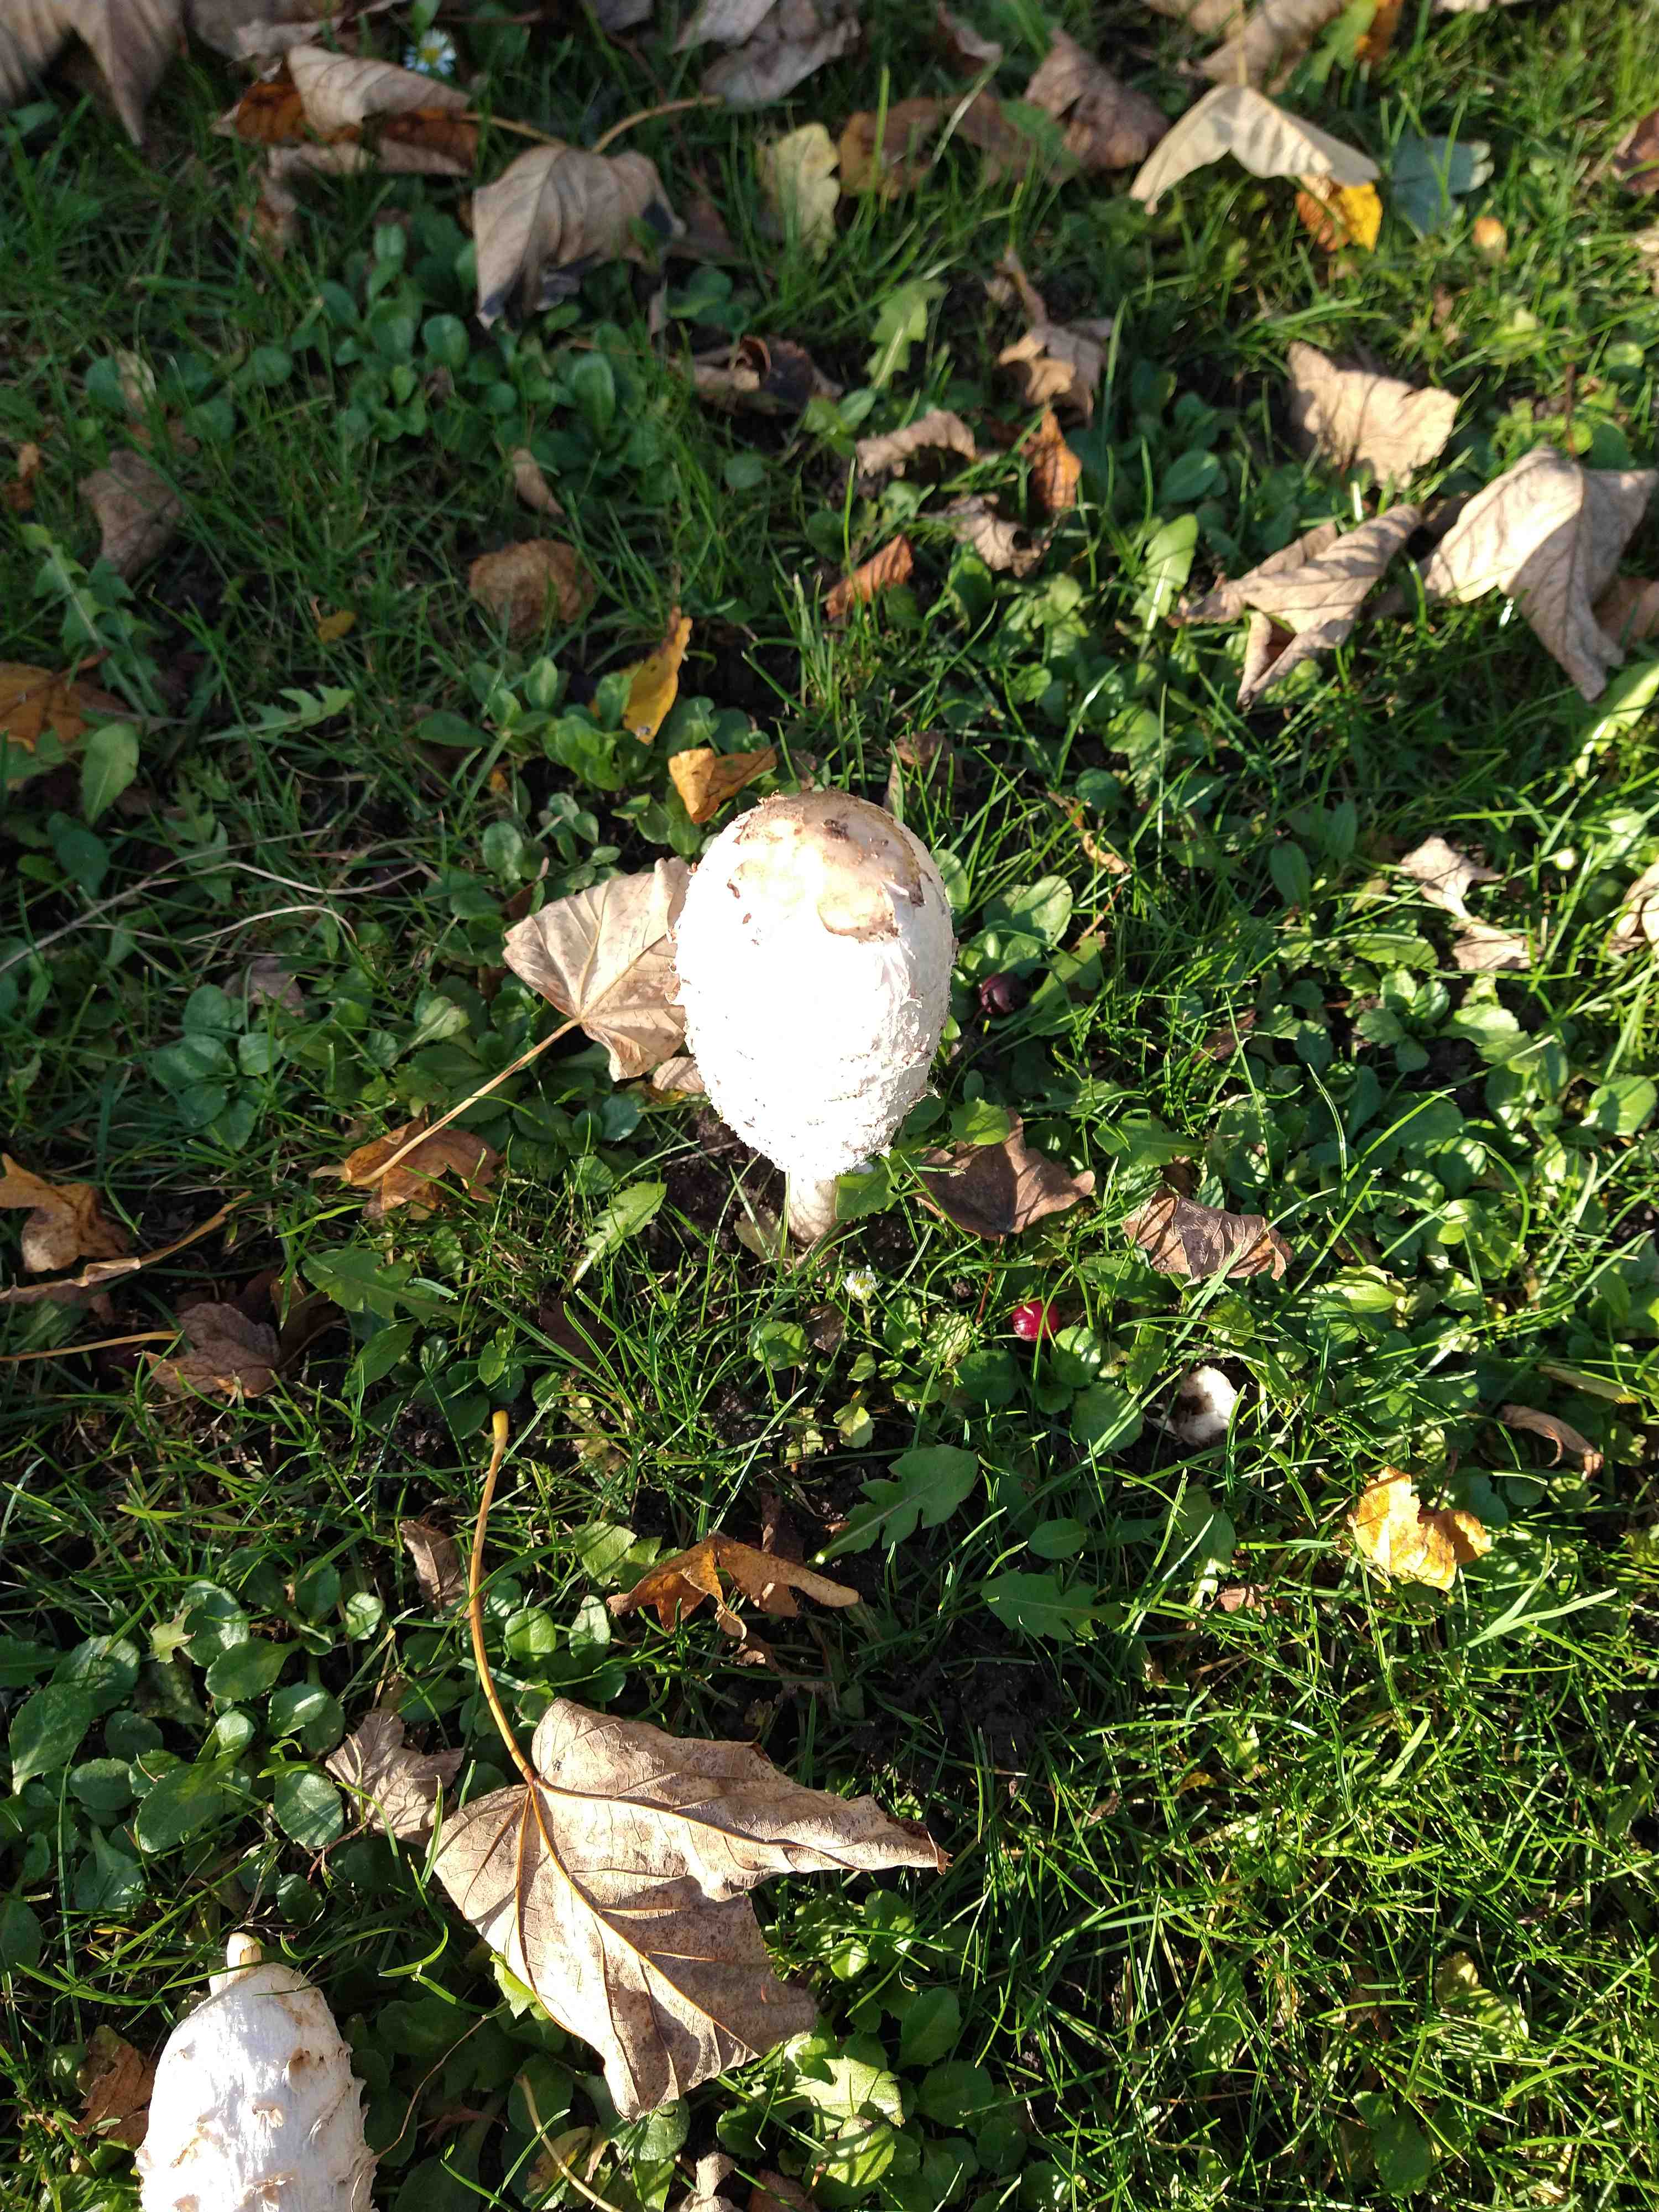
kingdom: Fungi
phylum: Basidiomycota
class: Agaricomycetes
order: Agaricales
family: Agaricaceae
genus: Coprinus
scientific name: Coprinus comatus
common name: stor parykhat
